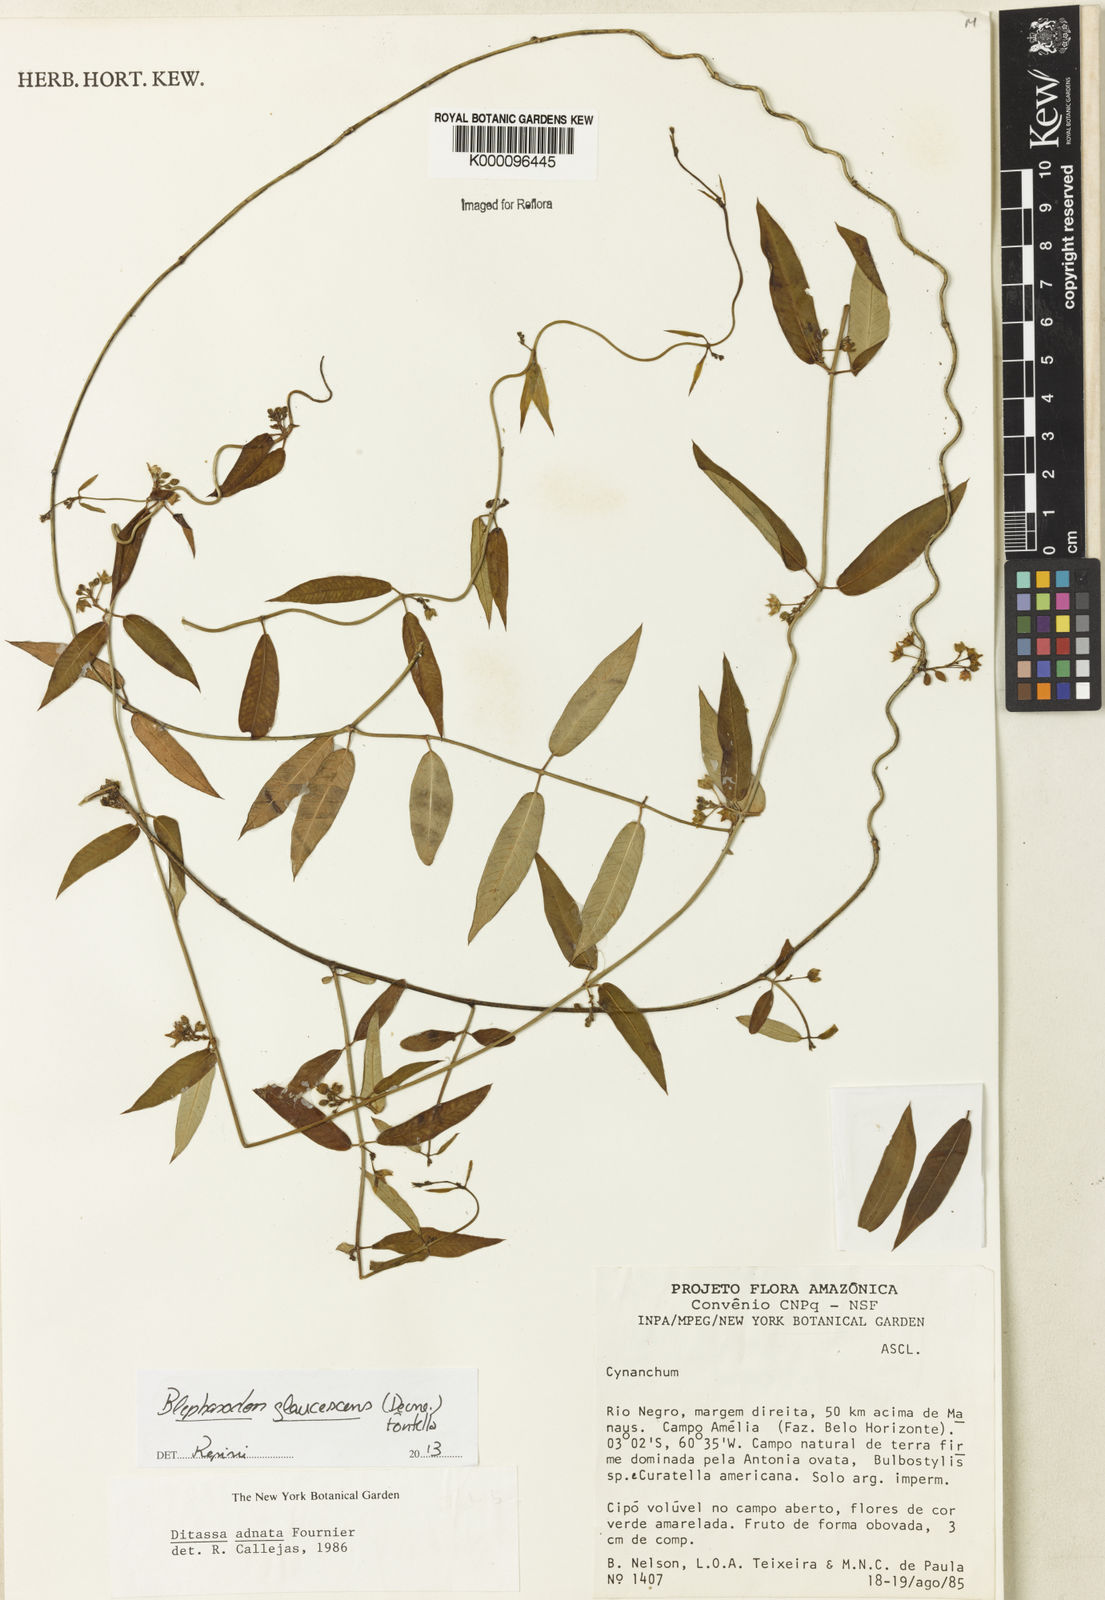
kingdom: Plantae
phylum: Tracheophyta
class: Magnoliopsida
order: Gentianales
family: Apocynaceae
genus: Blepharodon
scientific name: Blepharodon glaucescens
